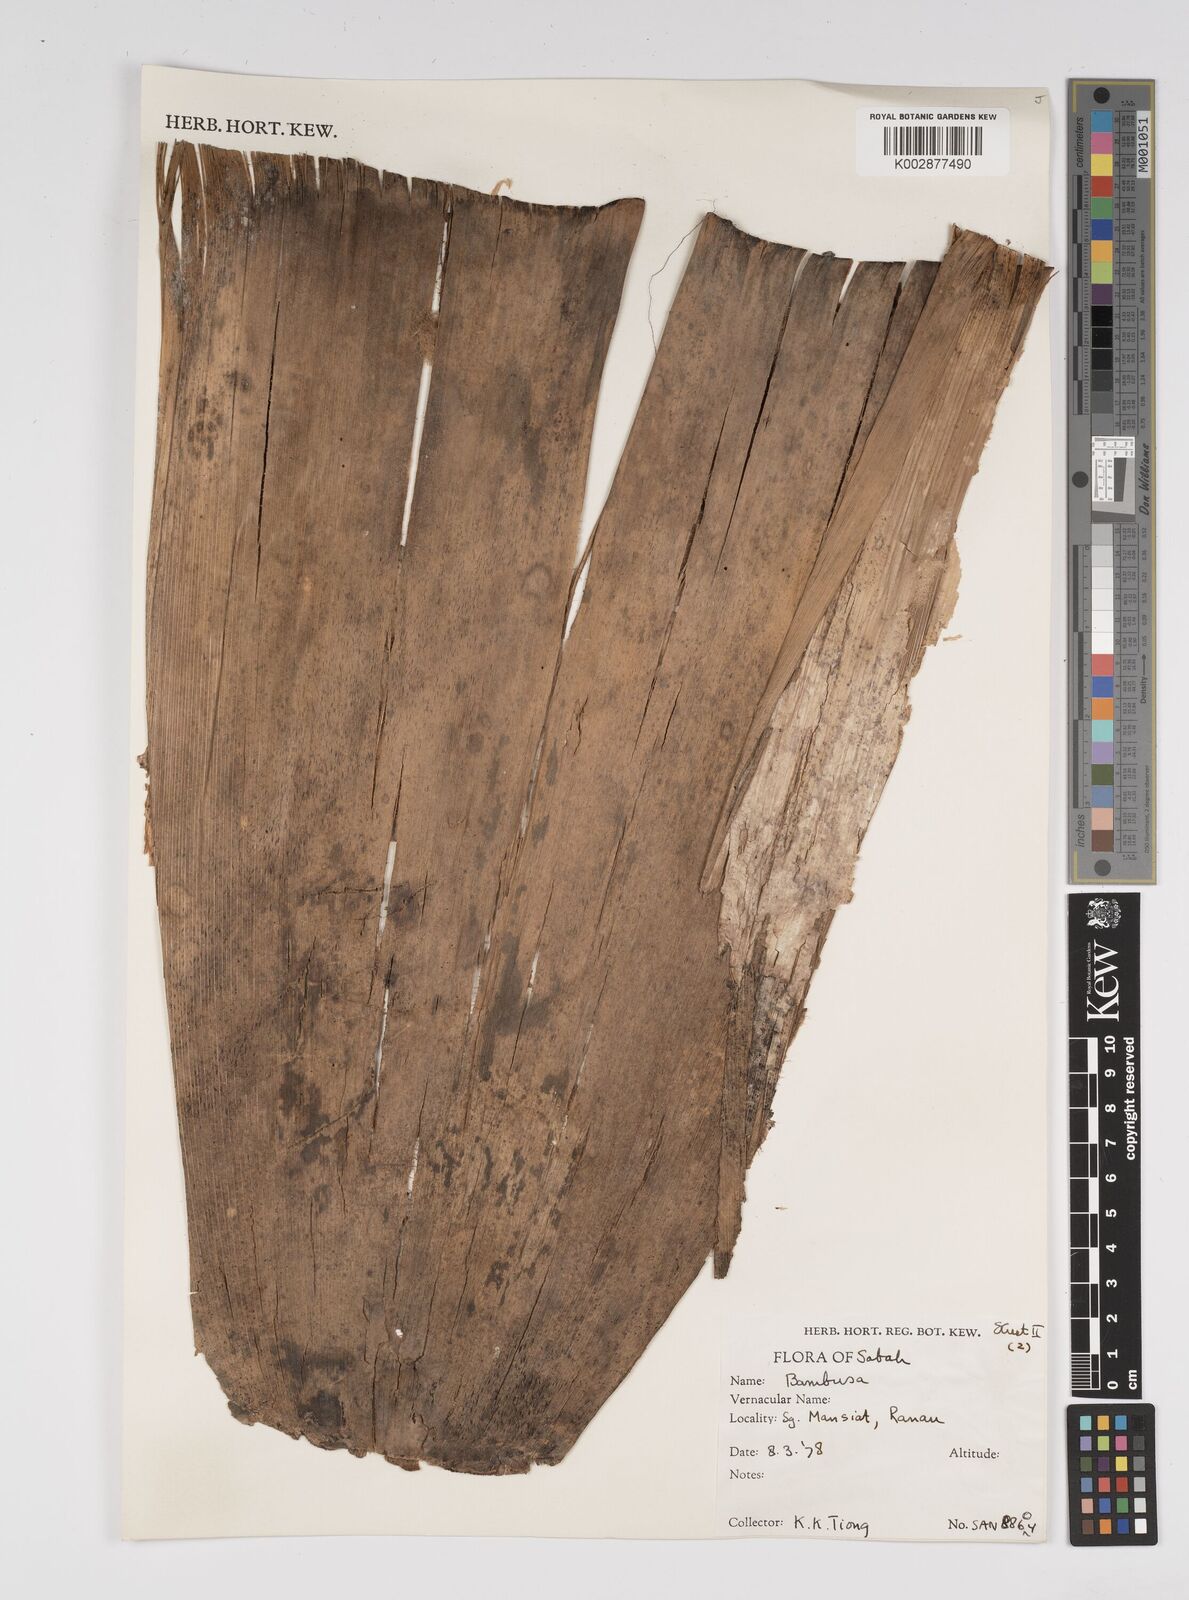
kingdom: Plantae
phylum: Tracheophyta
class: Liliopsida
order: Poales
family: Poaceae
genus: Bambusa
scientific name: Bambusa
